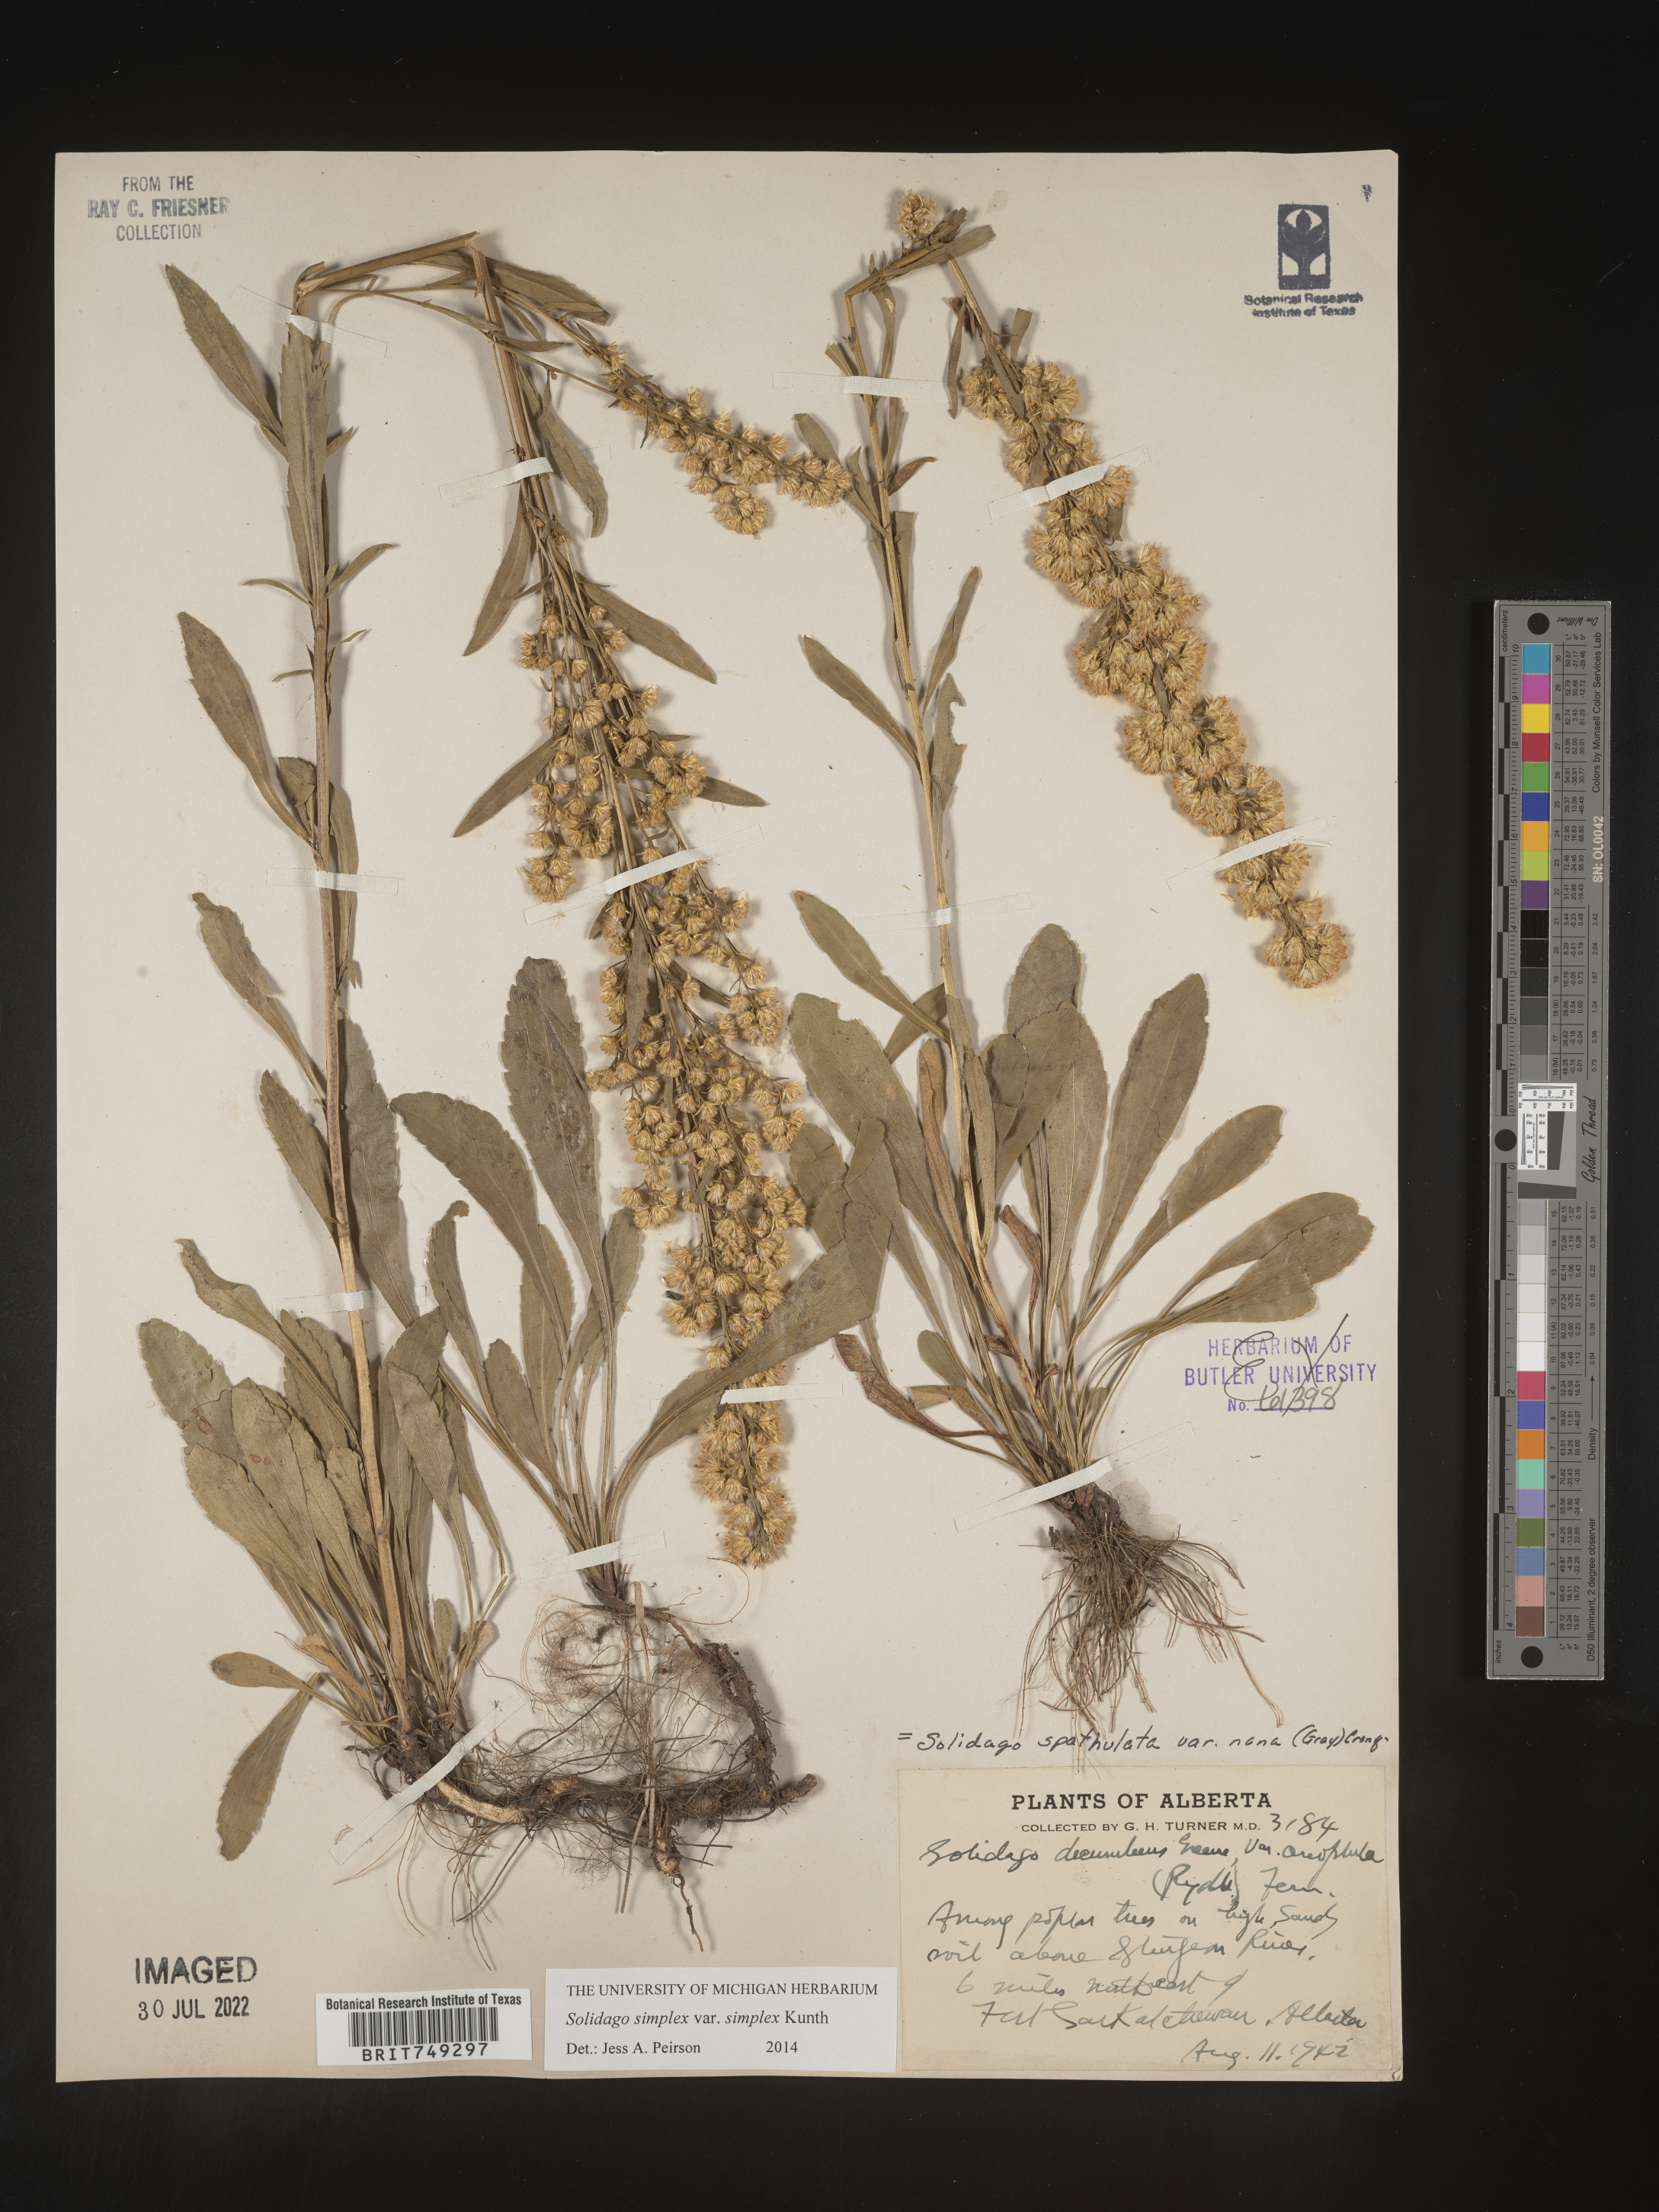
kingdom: Plantae
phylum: Tracheophyta
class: Magnoliopsida
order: Asterales
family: Asteraceae
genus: Solidago
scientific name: Solidago simplex
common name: Sticky goldenrod
